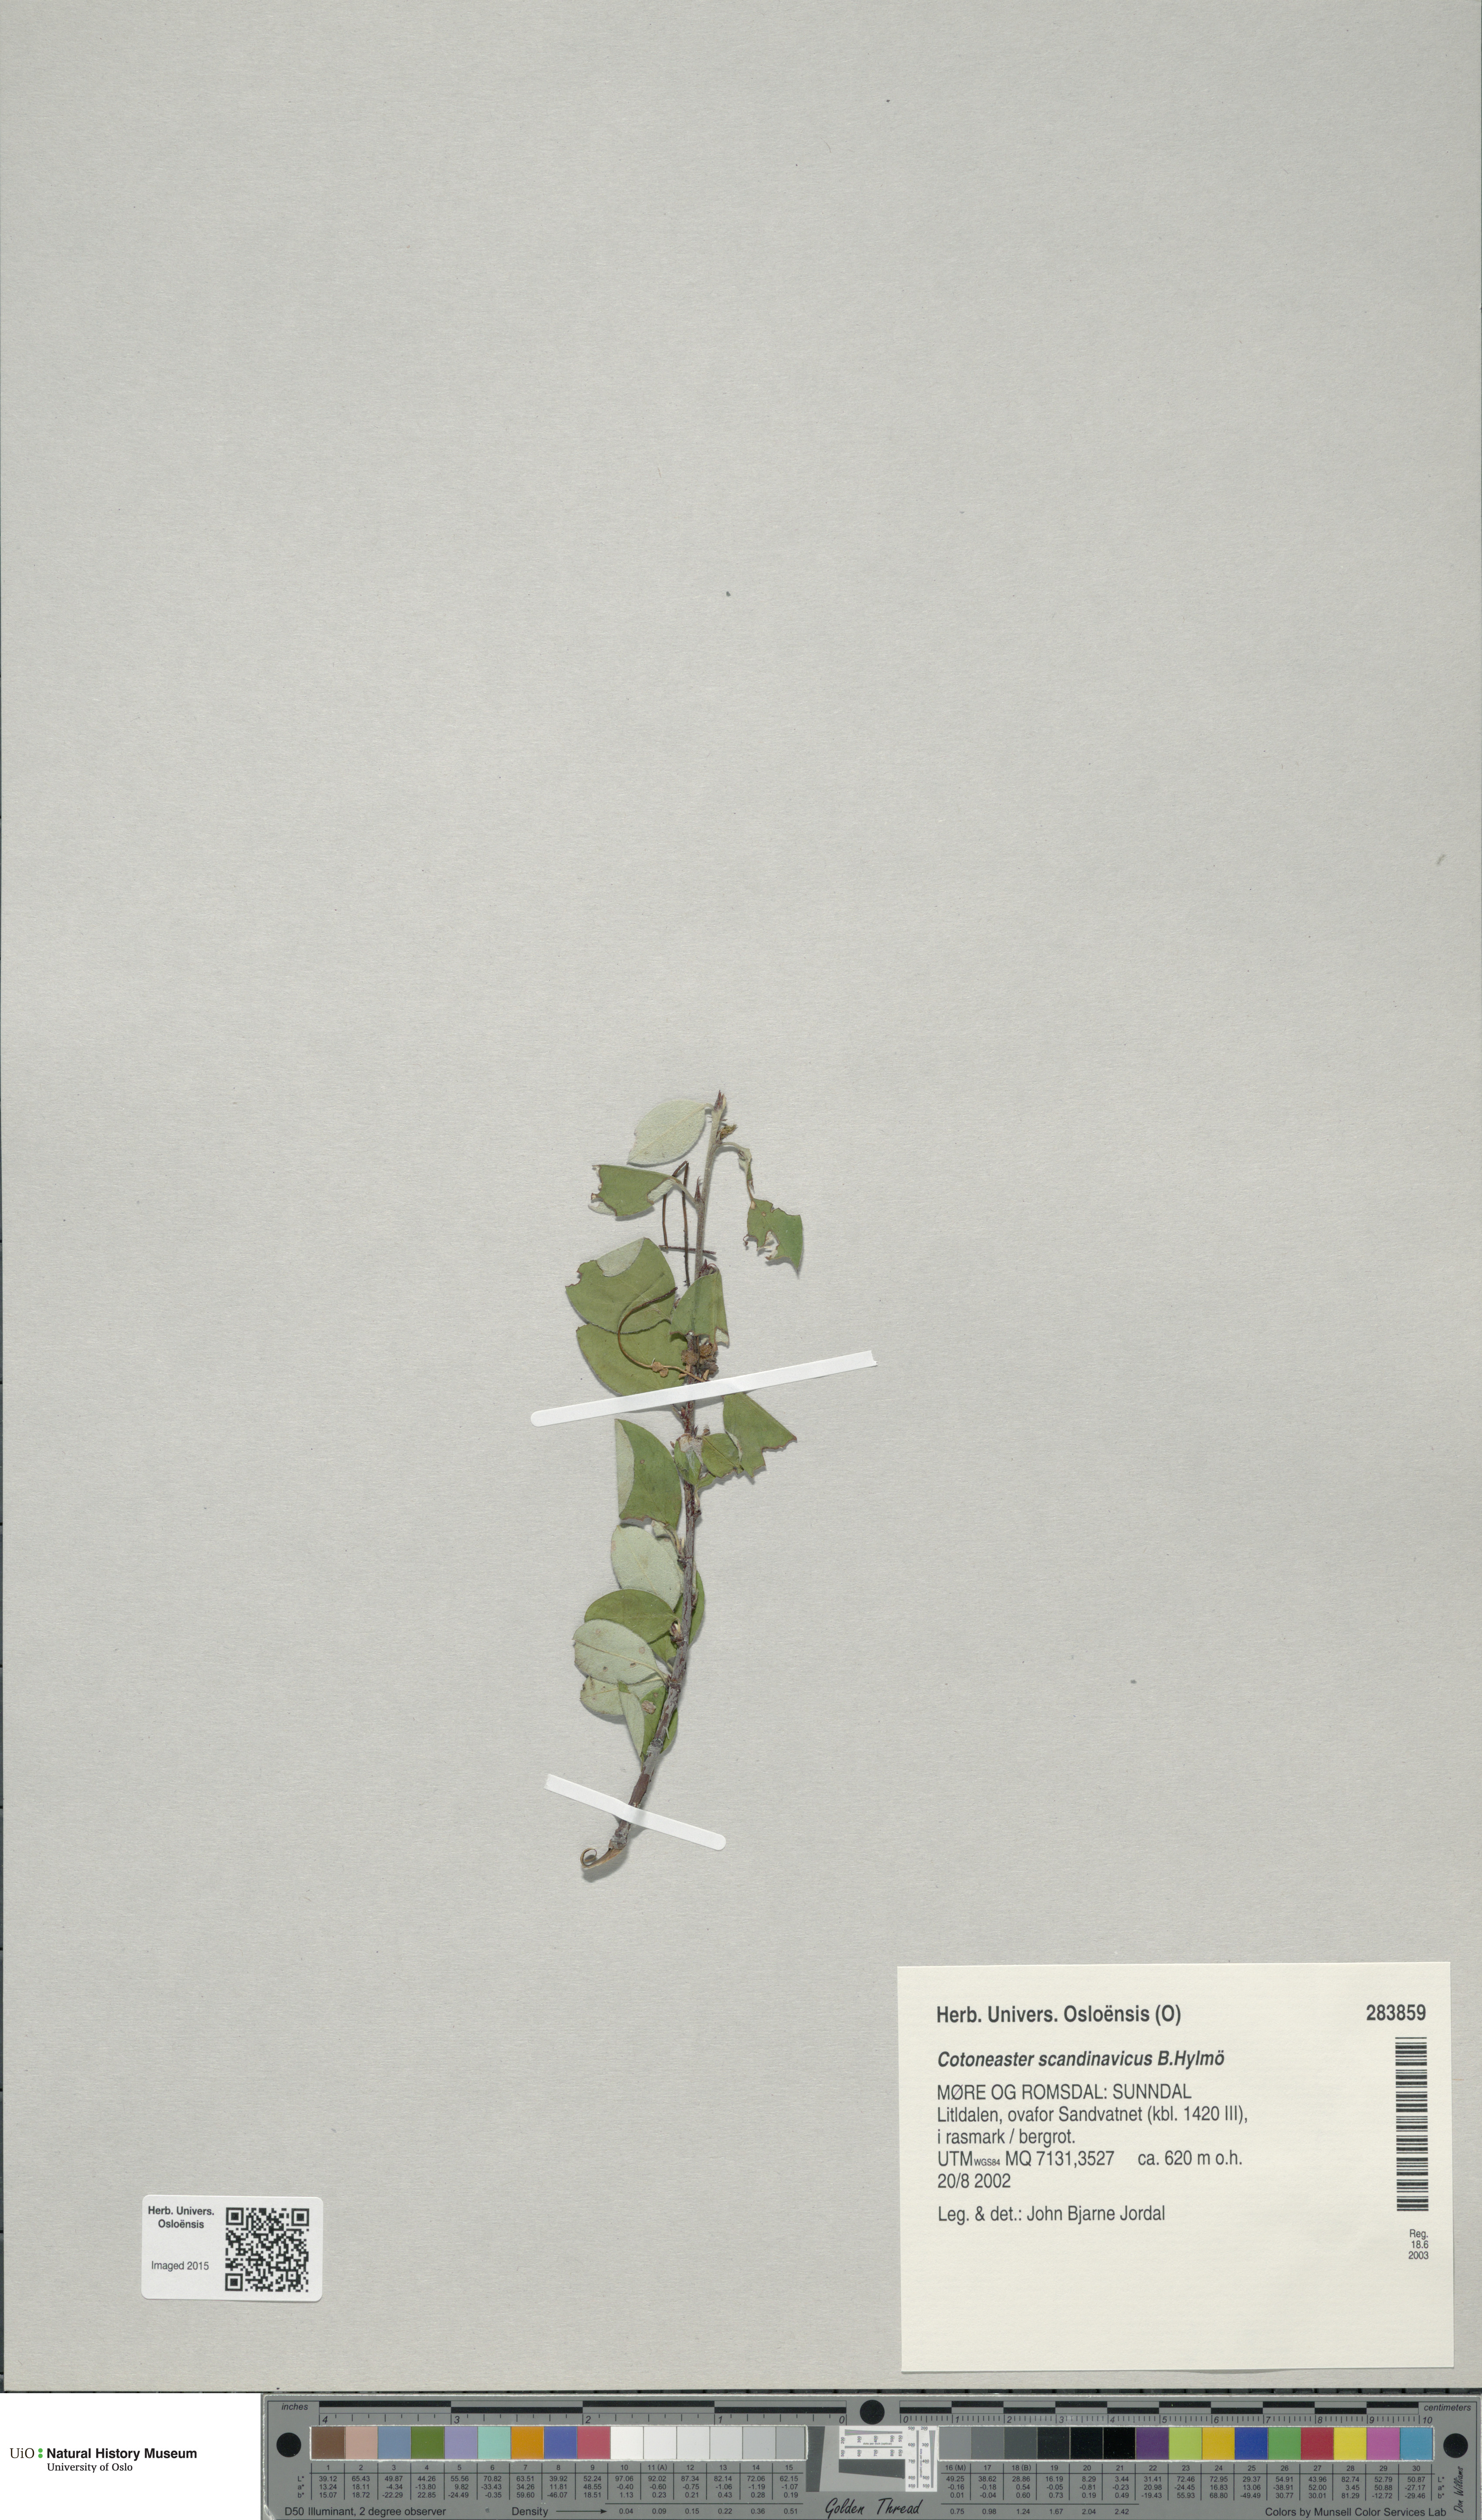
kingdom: Plantae
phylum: Tracheophyta
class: Magnoliopsida
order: Rosales
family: Rosaceae
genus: Cotoneaster
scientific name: Cotoneaster integerrimus
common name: Wild cotoneaster
